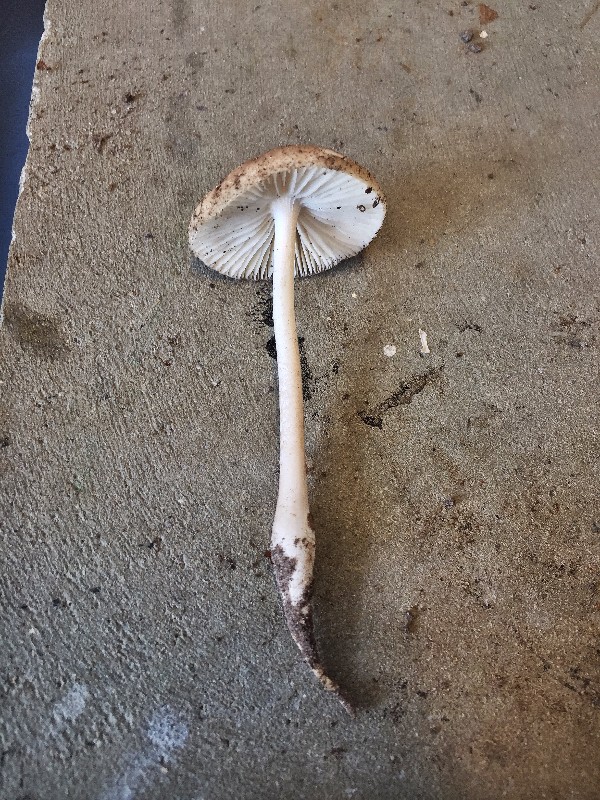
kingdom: Fungi
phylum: Basidiomycota
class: Agaricomycetes
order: Agaricales
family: Physalacriaceae
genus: Hymenopellis
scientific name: Hymenopellis radicata
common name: almindelig pælerodshat
